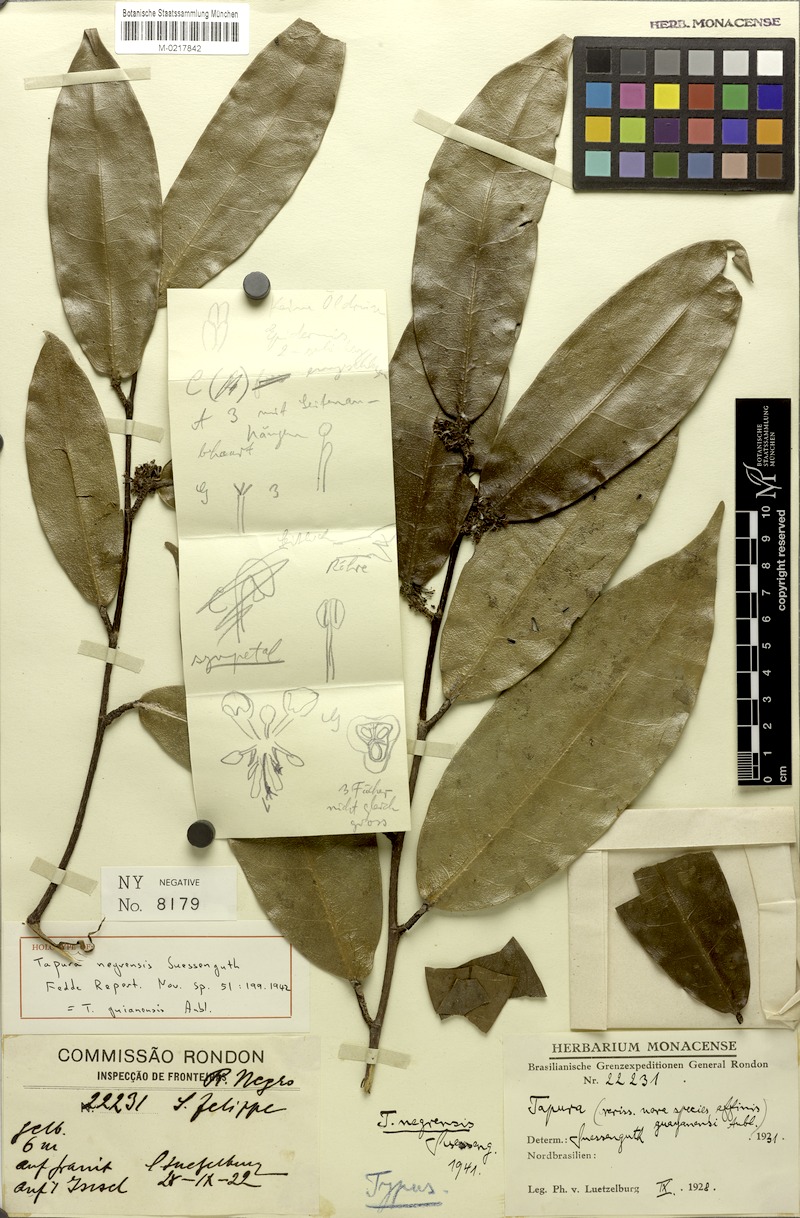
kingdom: Plantae
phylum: Tracheophyta
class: Magnoliopsida
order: Malpighiales
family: Dichapetalaceae
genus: Tapura
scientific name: Tapura guianensis
